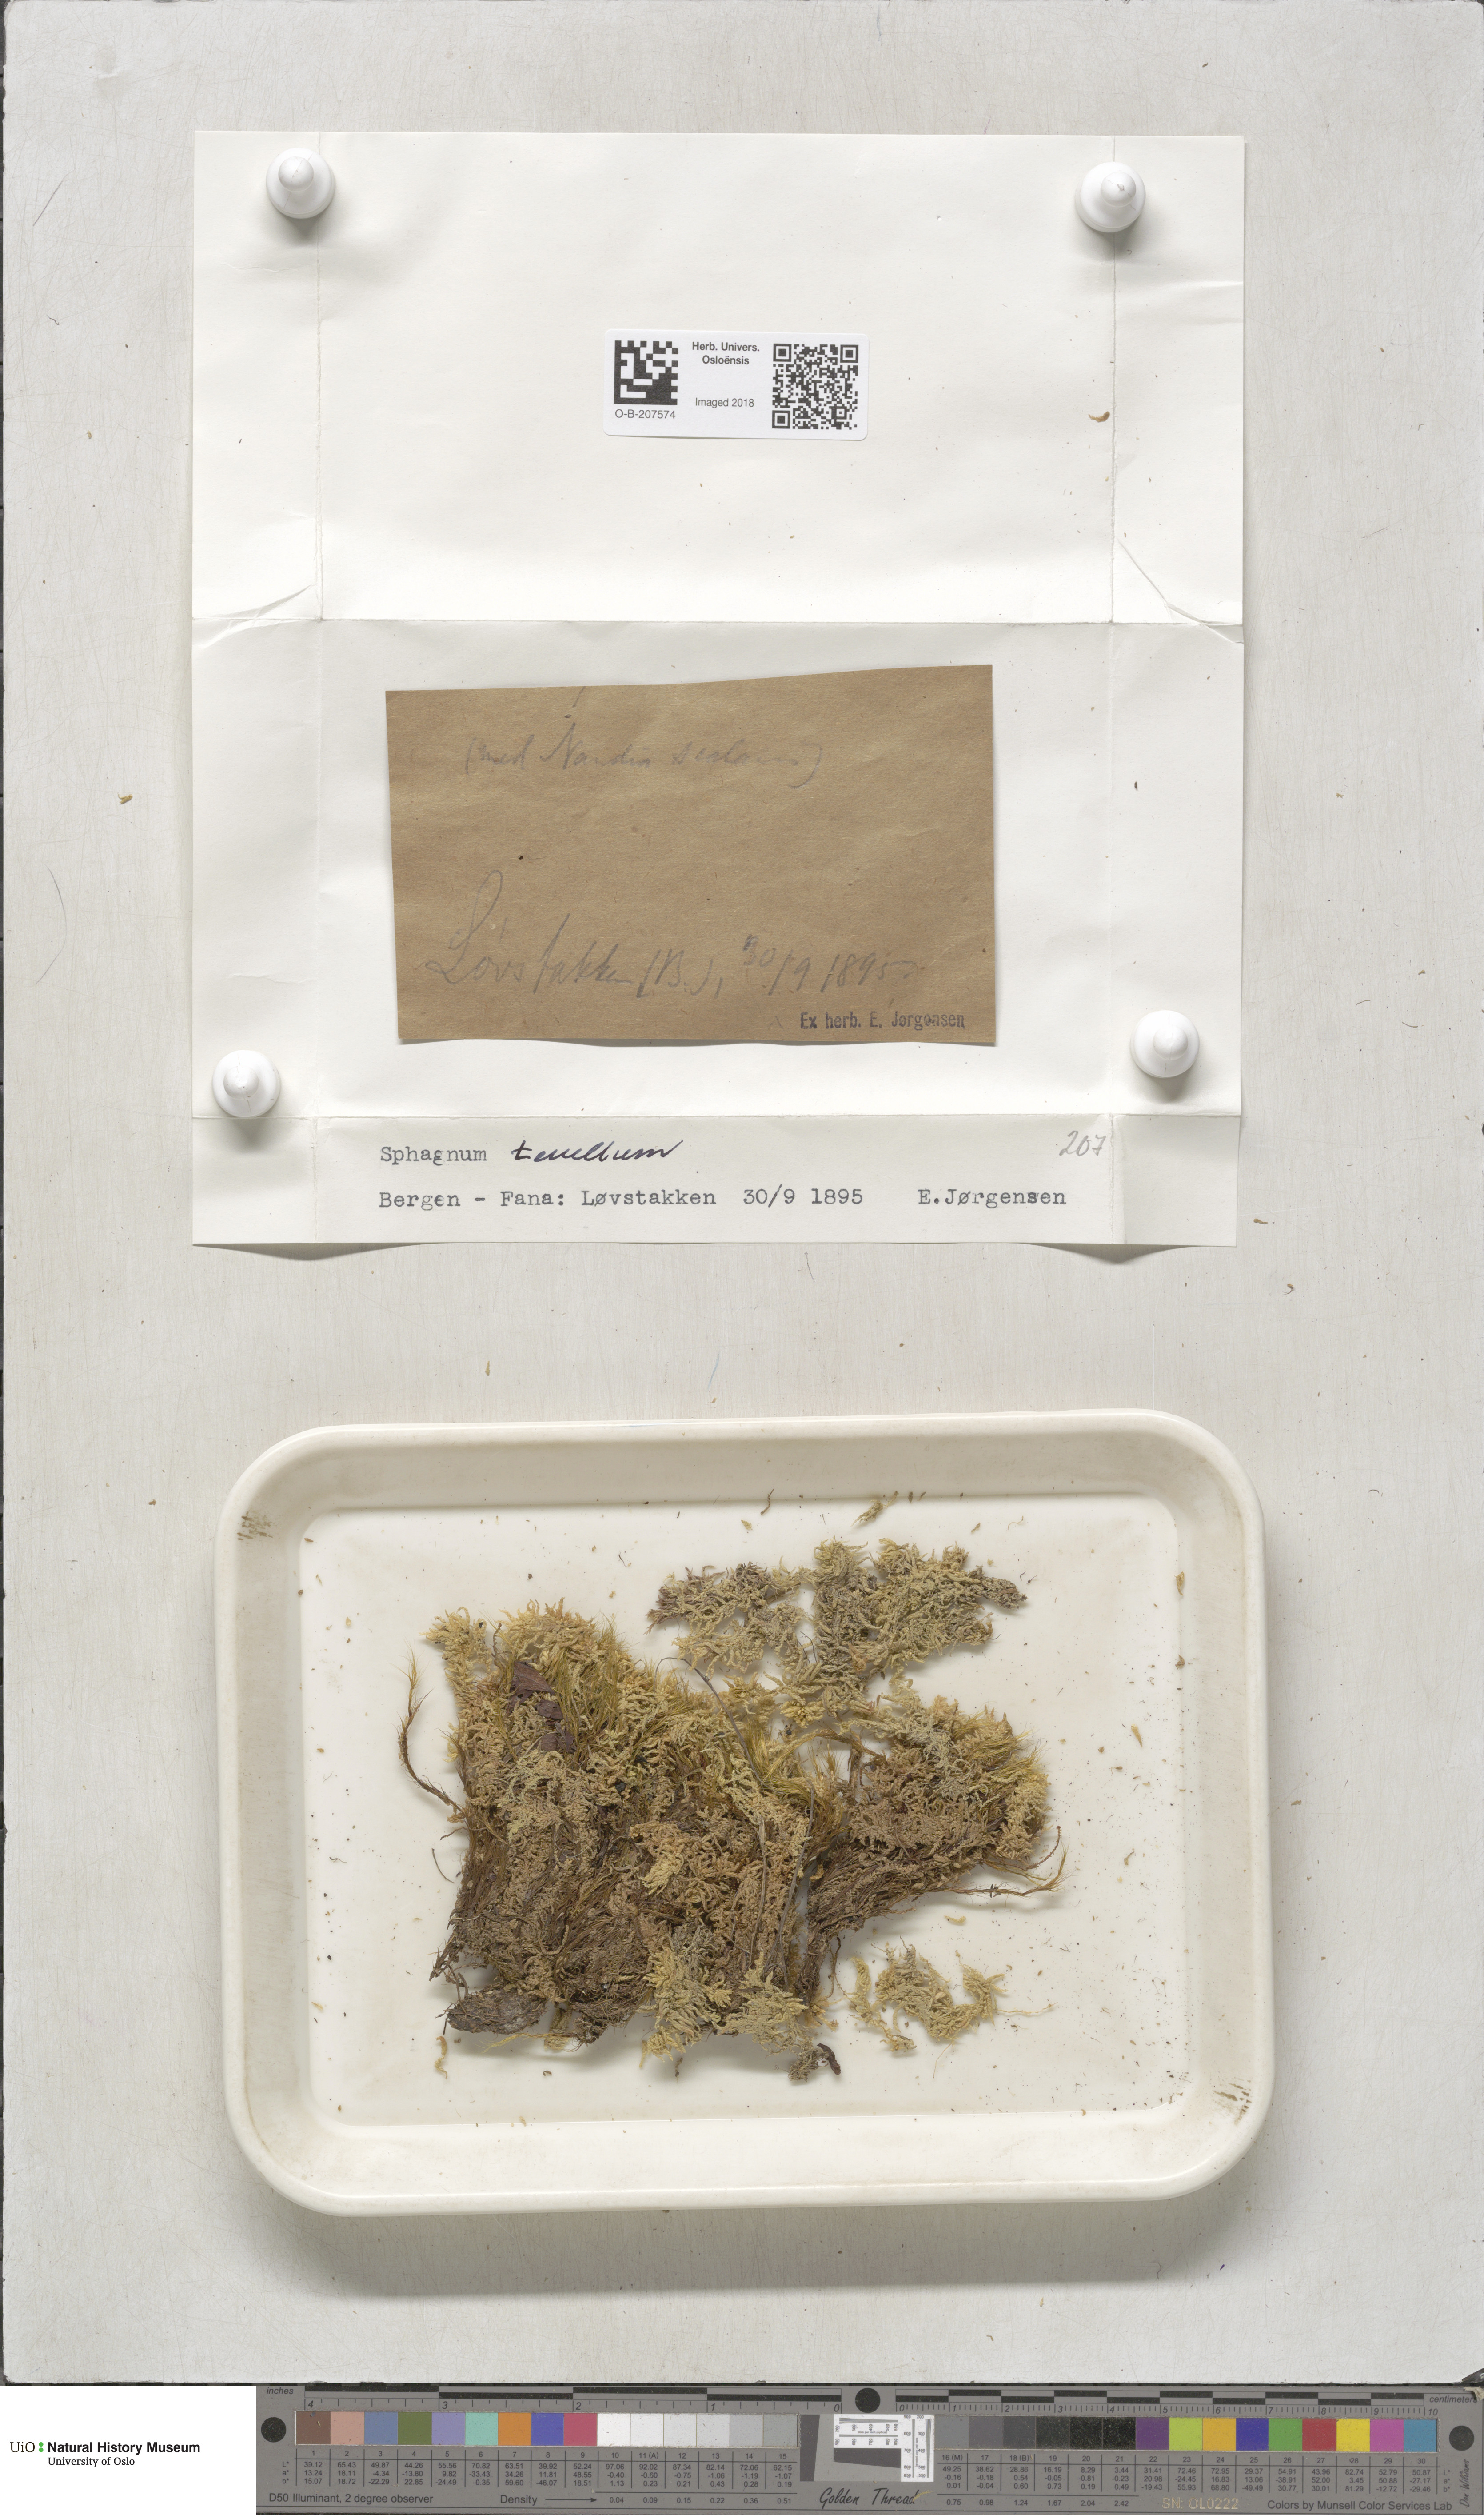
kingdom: Plantae
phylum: Bryophyta
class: Sphagnopsida
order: Sphagnales
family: Sphagnaceae
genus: Sphagnum
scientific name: Sphagnum tenellum
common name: Soft bog-moss
